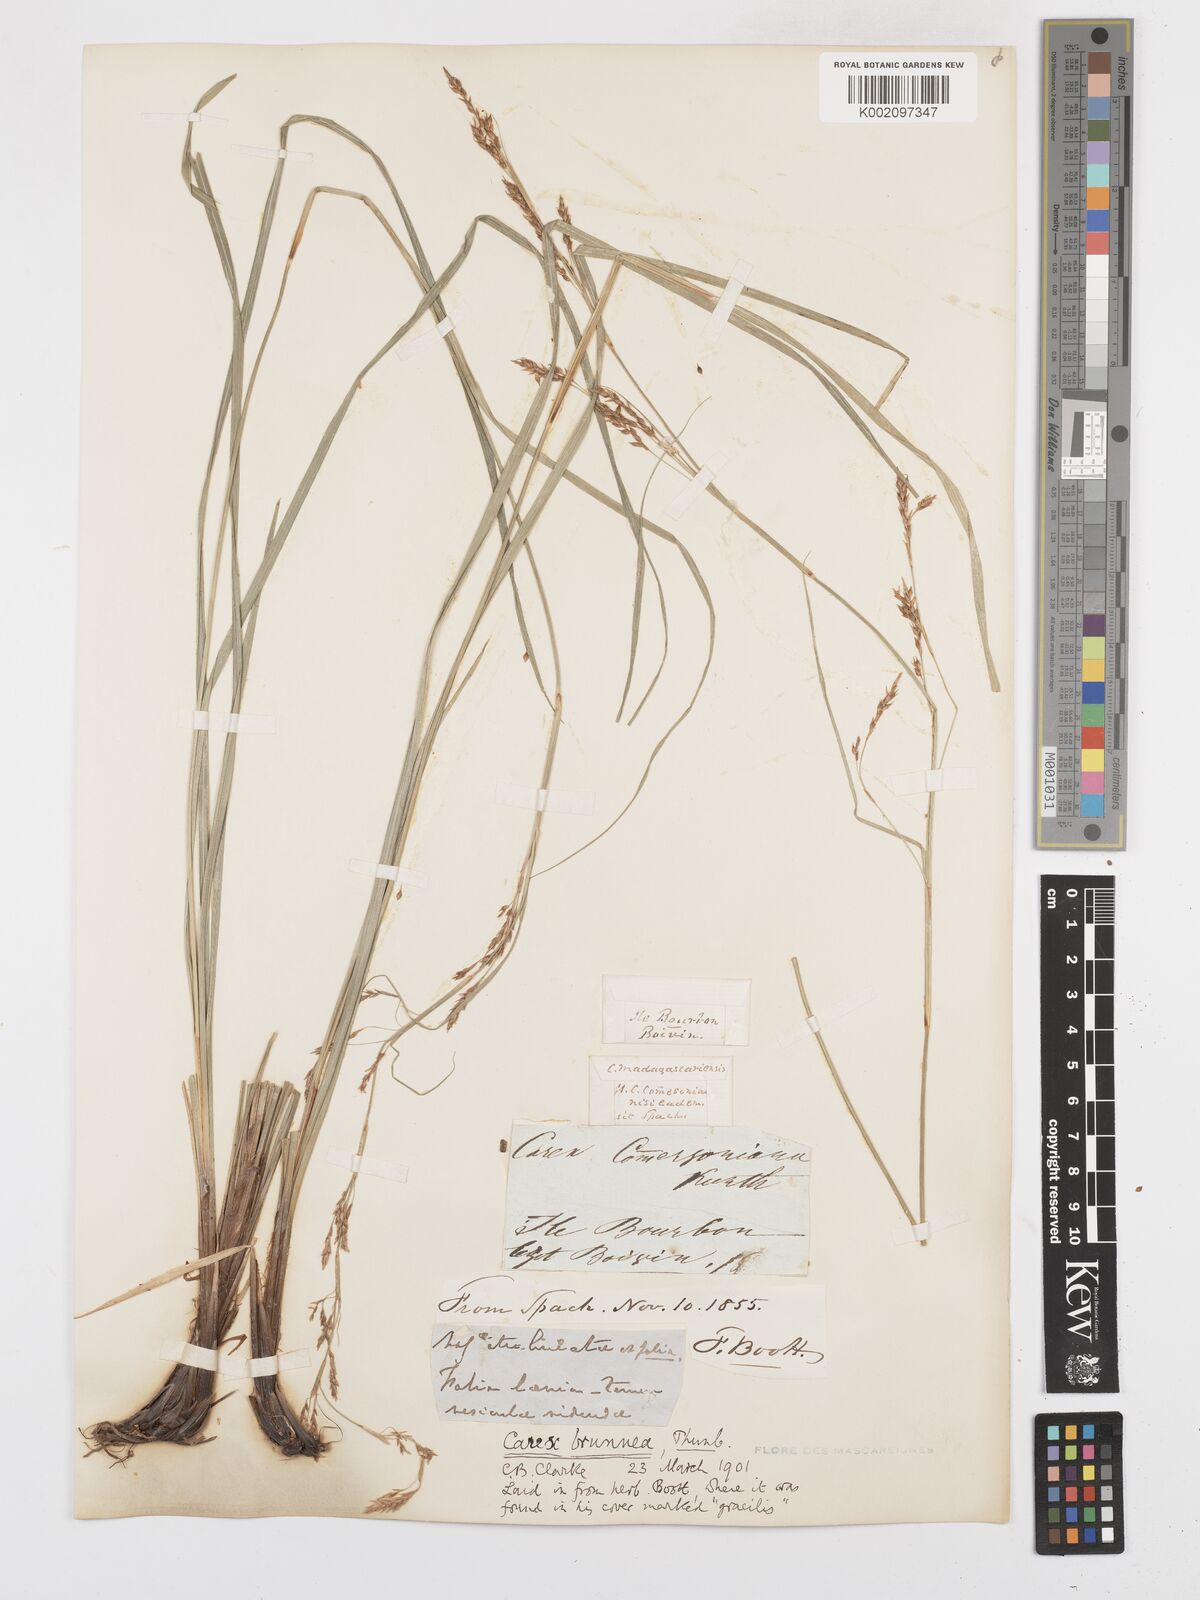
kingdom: Plantae
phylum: Tracheophyta
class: Liliopsida
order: Poales
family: Cyperaceae
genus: Carex
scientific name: Carex brunnea
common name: Greater brown sedge
